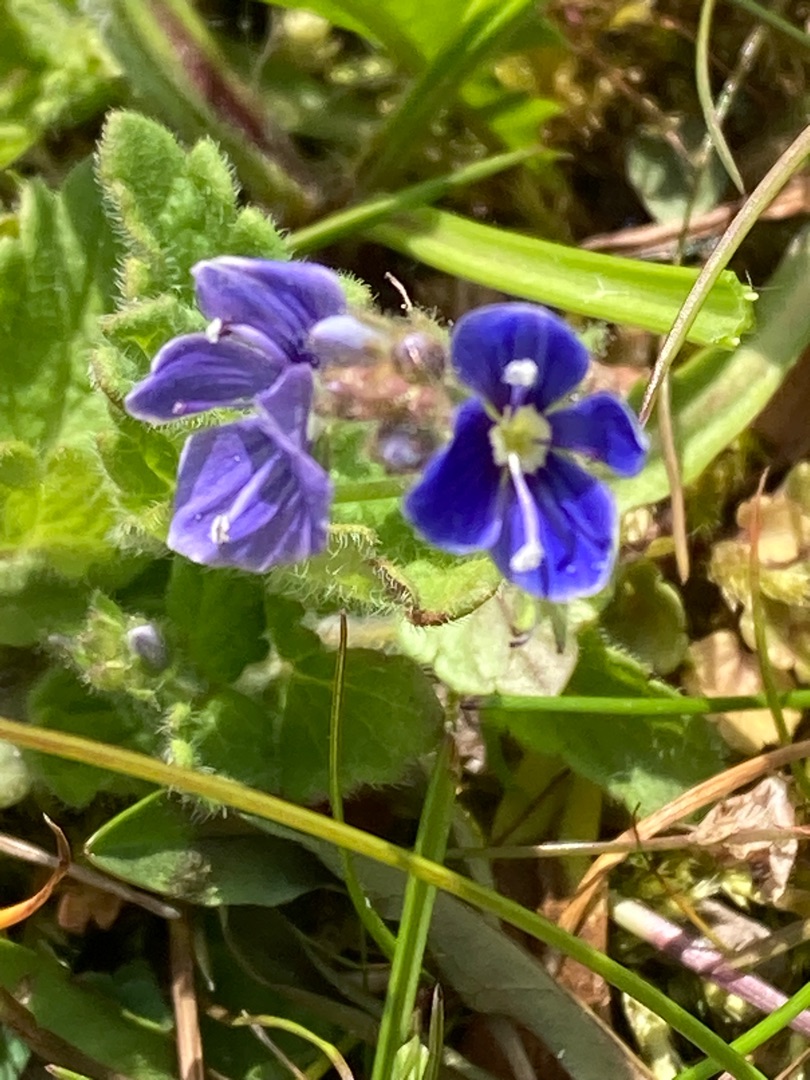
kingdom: Plantae
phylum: Tracheophyta
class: Magnoliopsida
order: Lamiales
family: Plantaginaceae
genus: Veronica
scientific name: Veronica chamaedrys
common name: Tveskægget ærenpris
